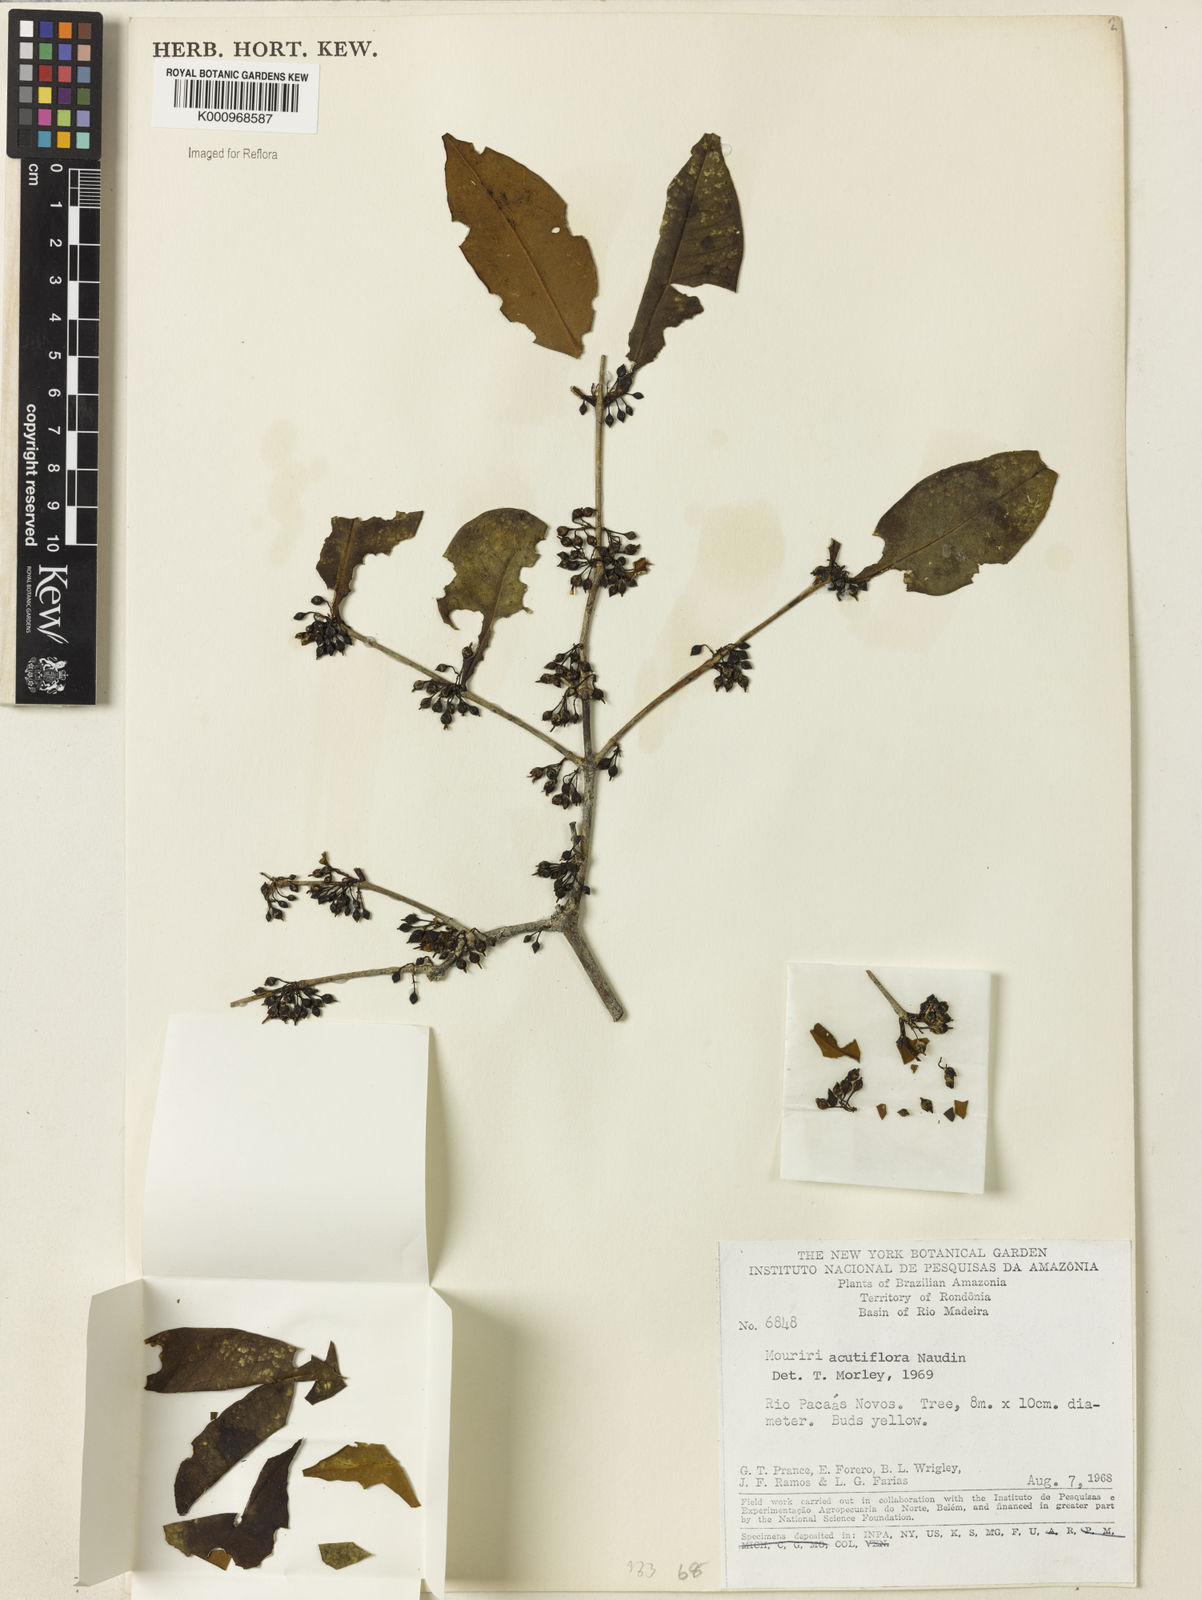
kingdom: Plantae
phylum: Tracheophyta
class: Magnoliopsida
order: Myrtales
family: Melastomataceae
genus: Mouriri
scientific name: Mouriri acutiflora
